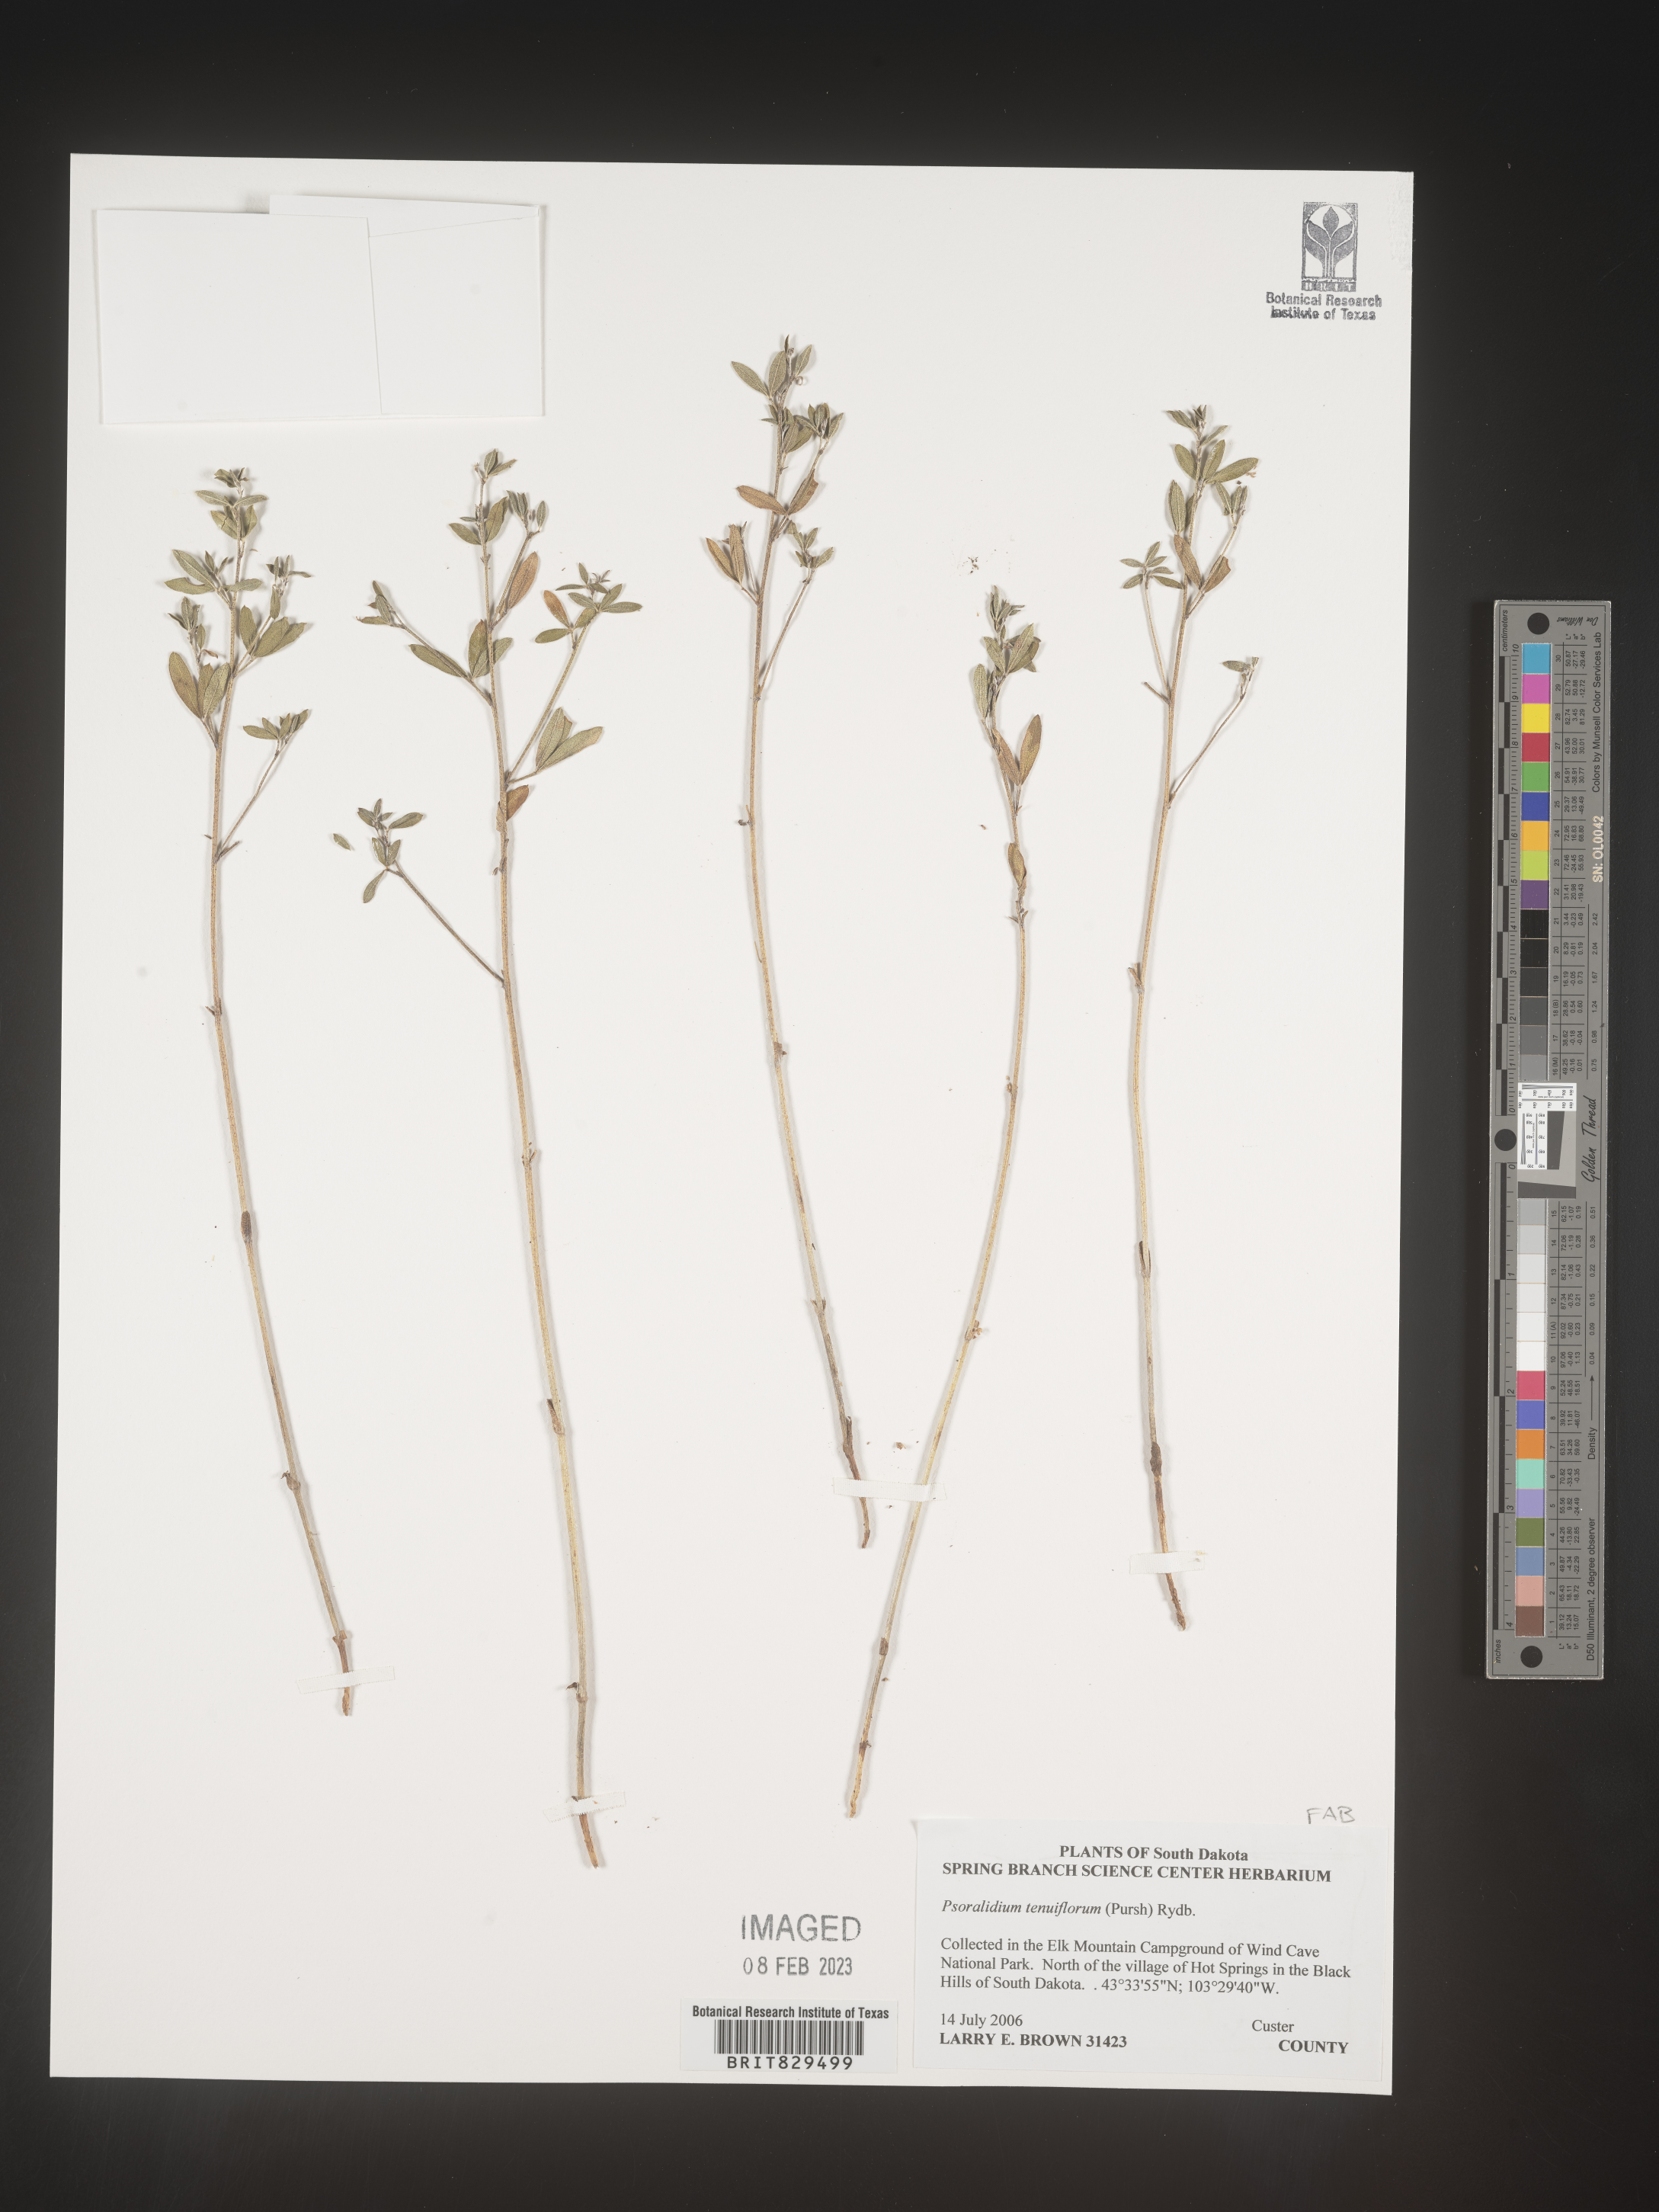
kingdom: Plantae
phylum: Tracheophyta
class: Magnoliopsida
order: Fabales
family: Fabaceae
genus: Pediomelum
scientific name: Pediomelum tenuiflorum
